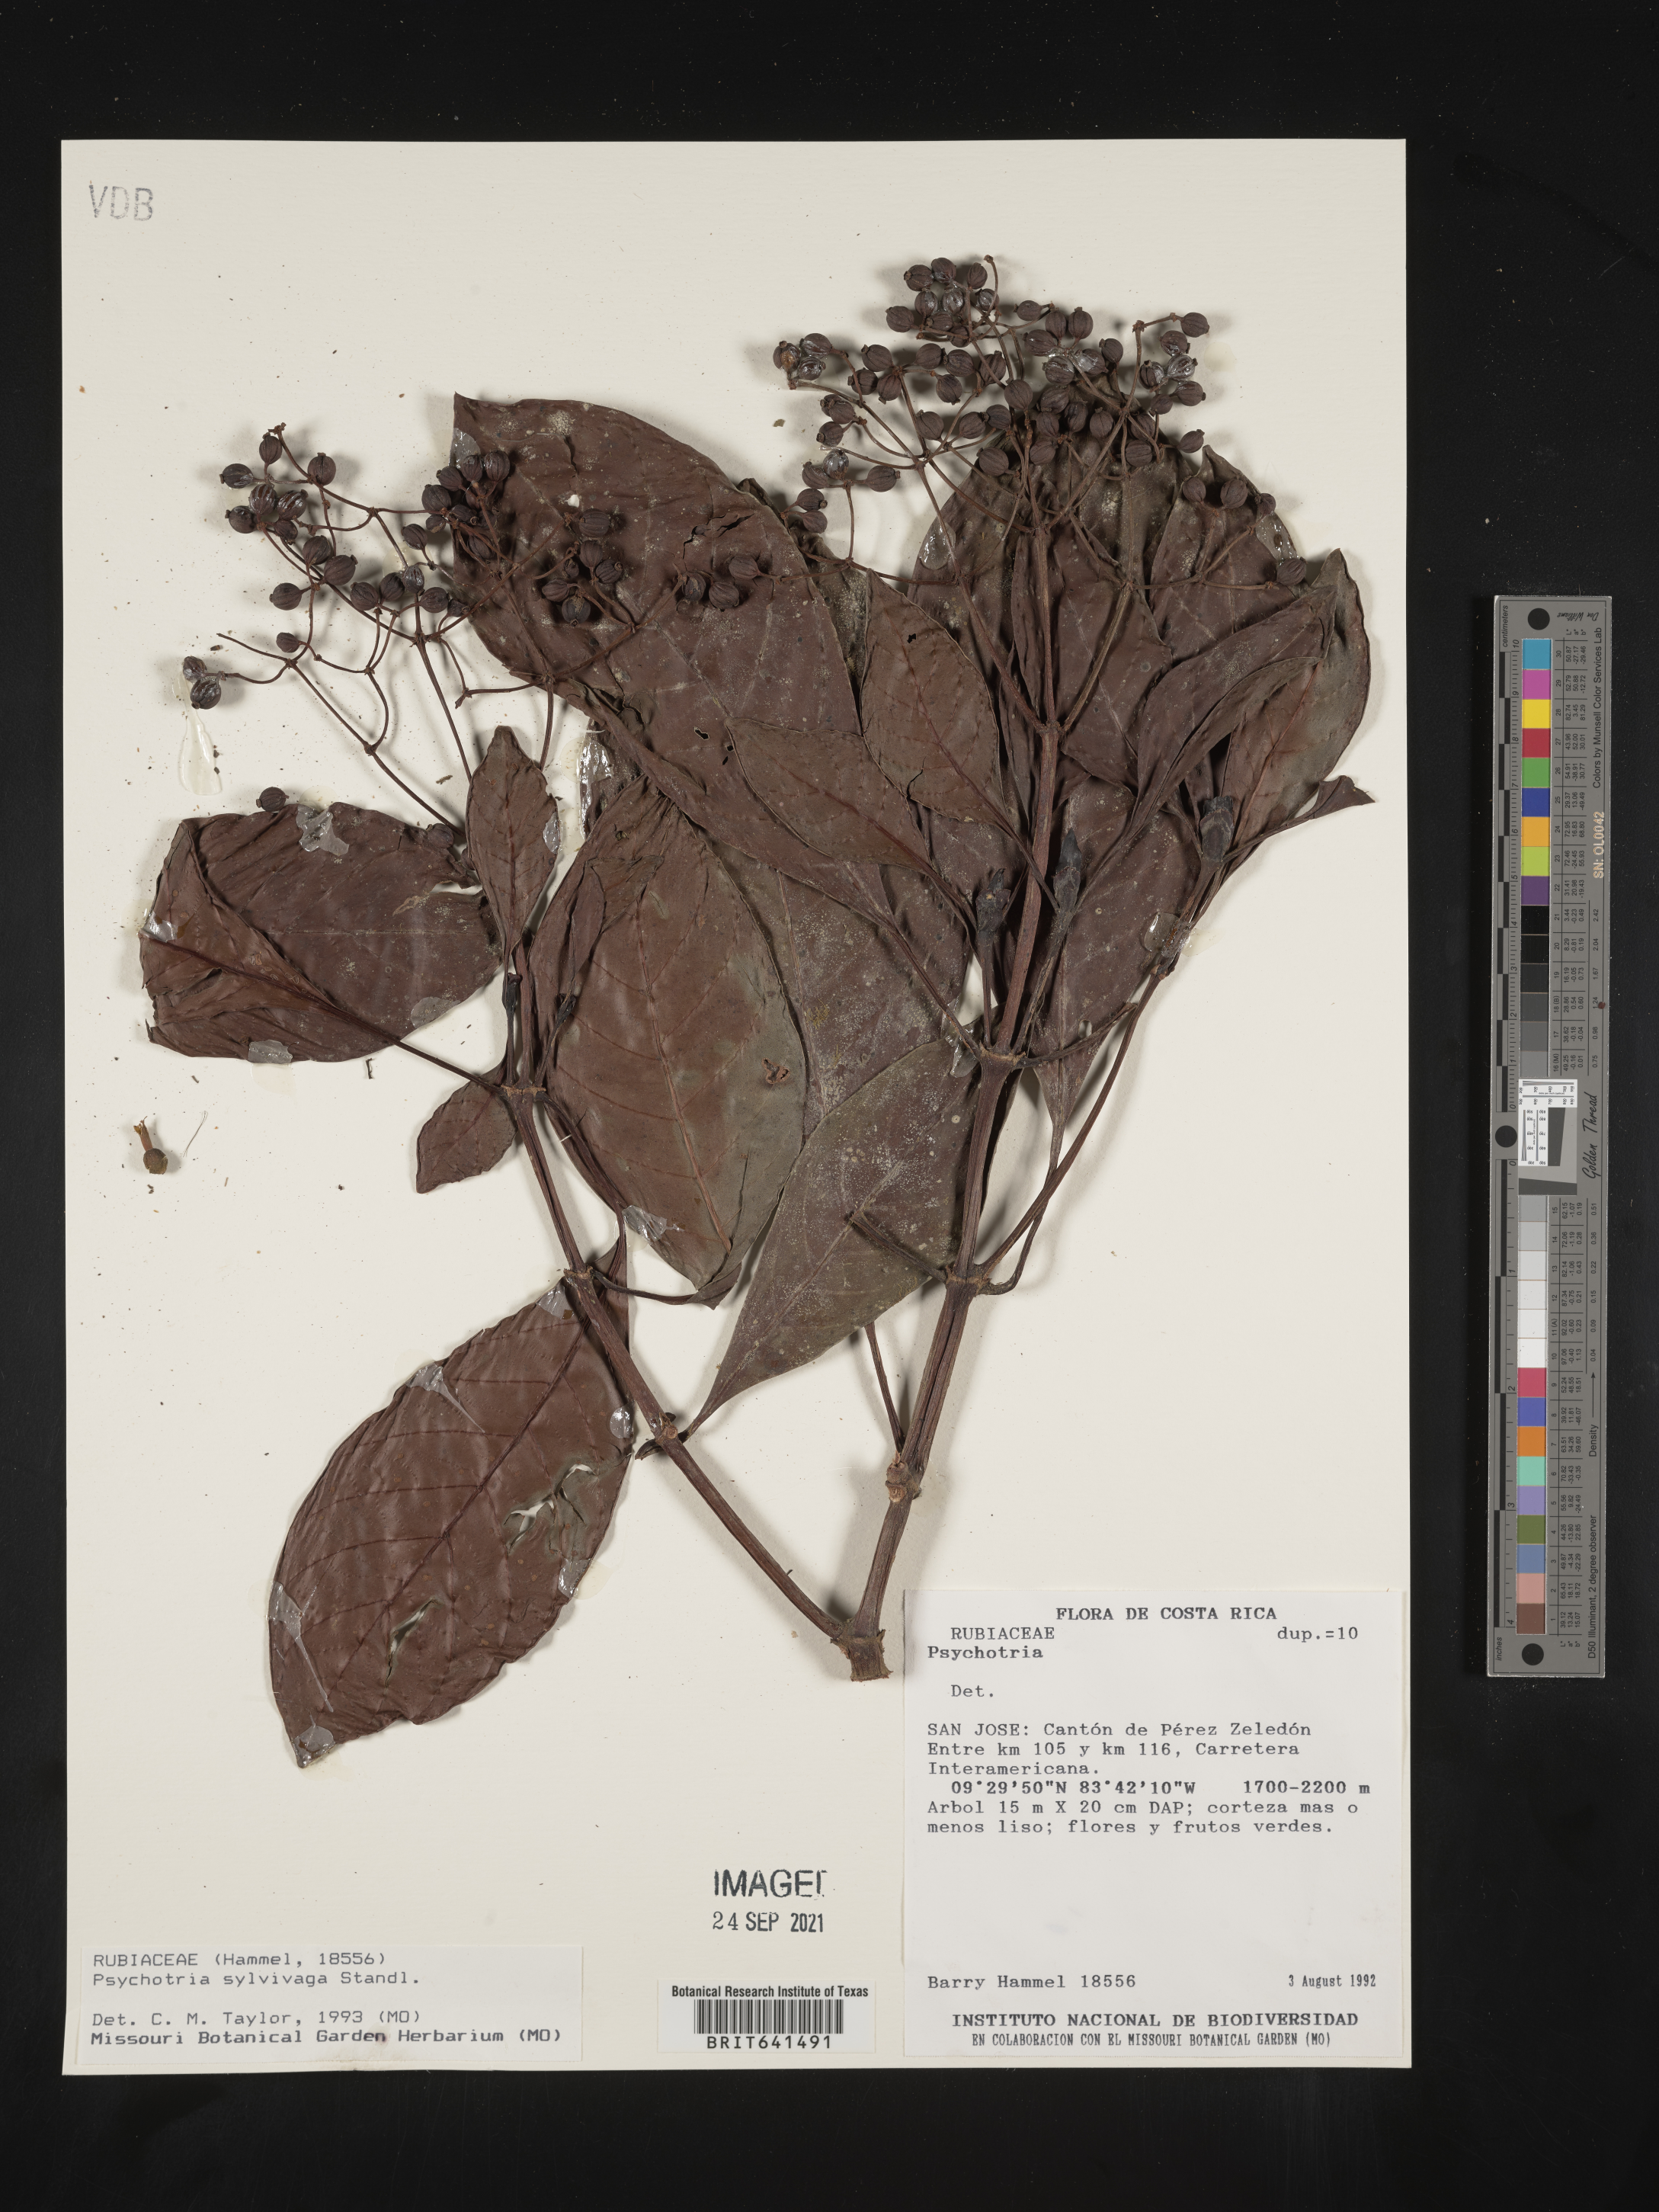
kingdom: Plantae
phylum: Tracheophyta
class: Magnoliopsida
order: Gentianales
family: Rubiaceae
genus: Psychotria
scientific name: Psychotria
